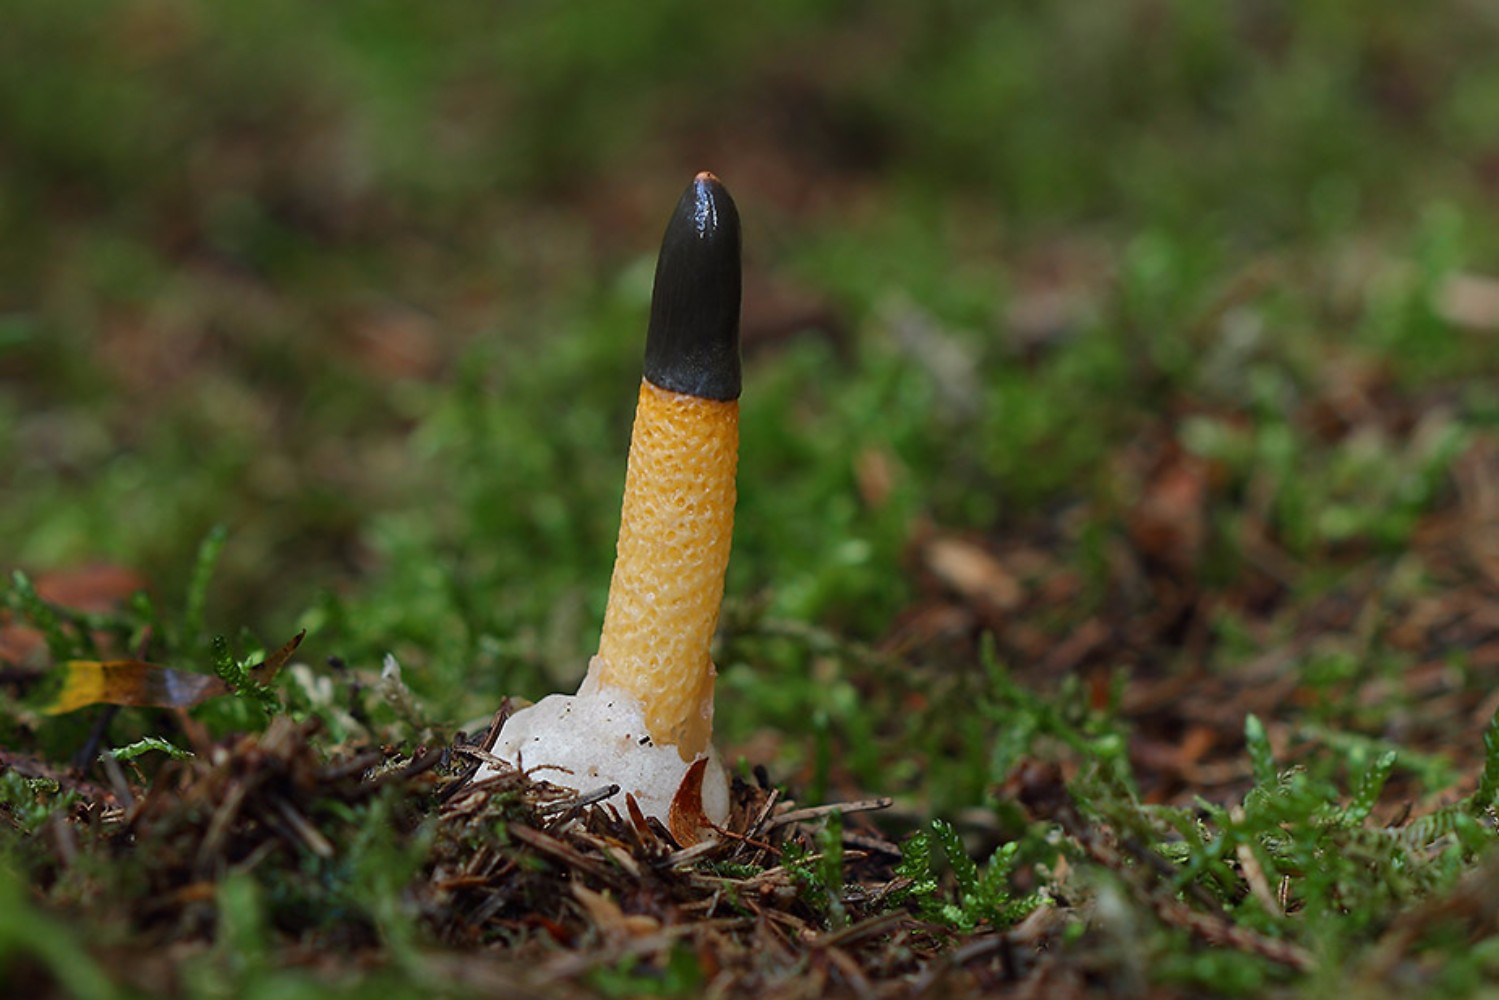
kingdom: Fungi
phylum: Basidiomycota
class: Agaricomycetes
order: Phallales
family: Phallaceae
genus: Mutinus
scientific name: Mutinus caninus
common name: hunde-stinksvamp
